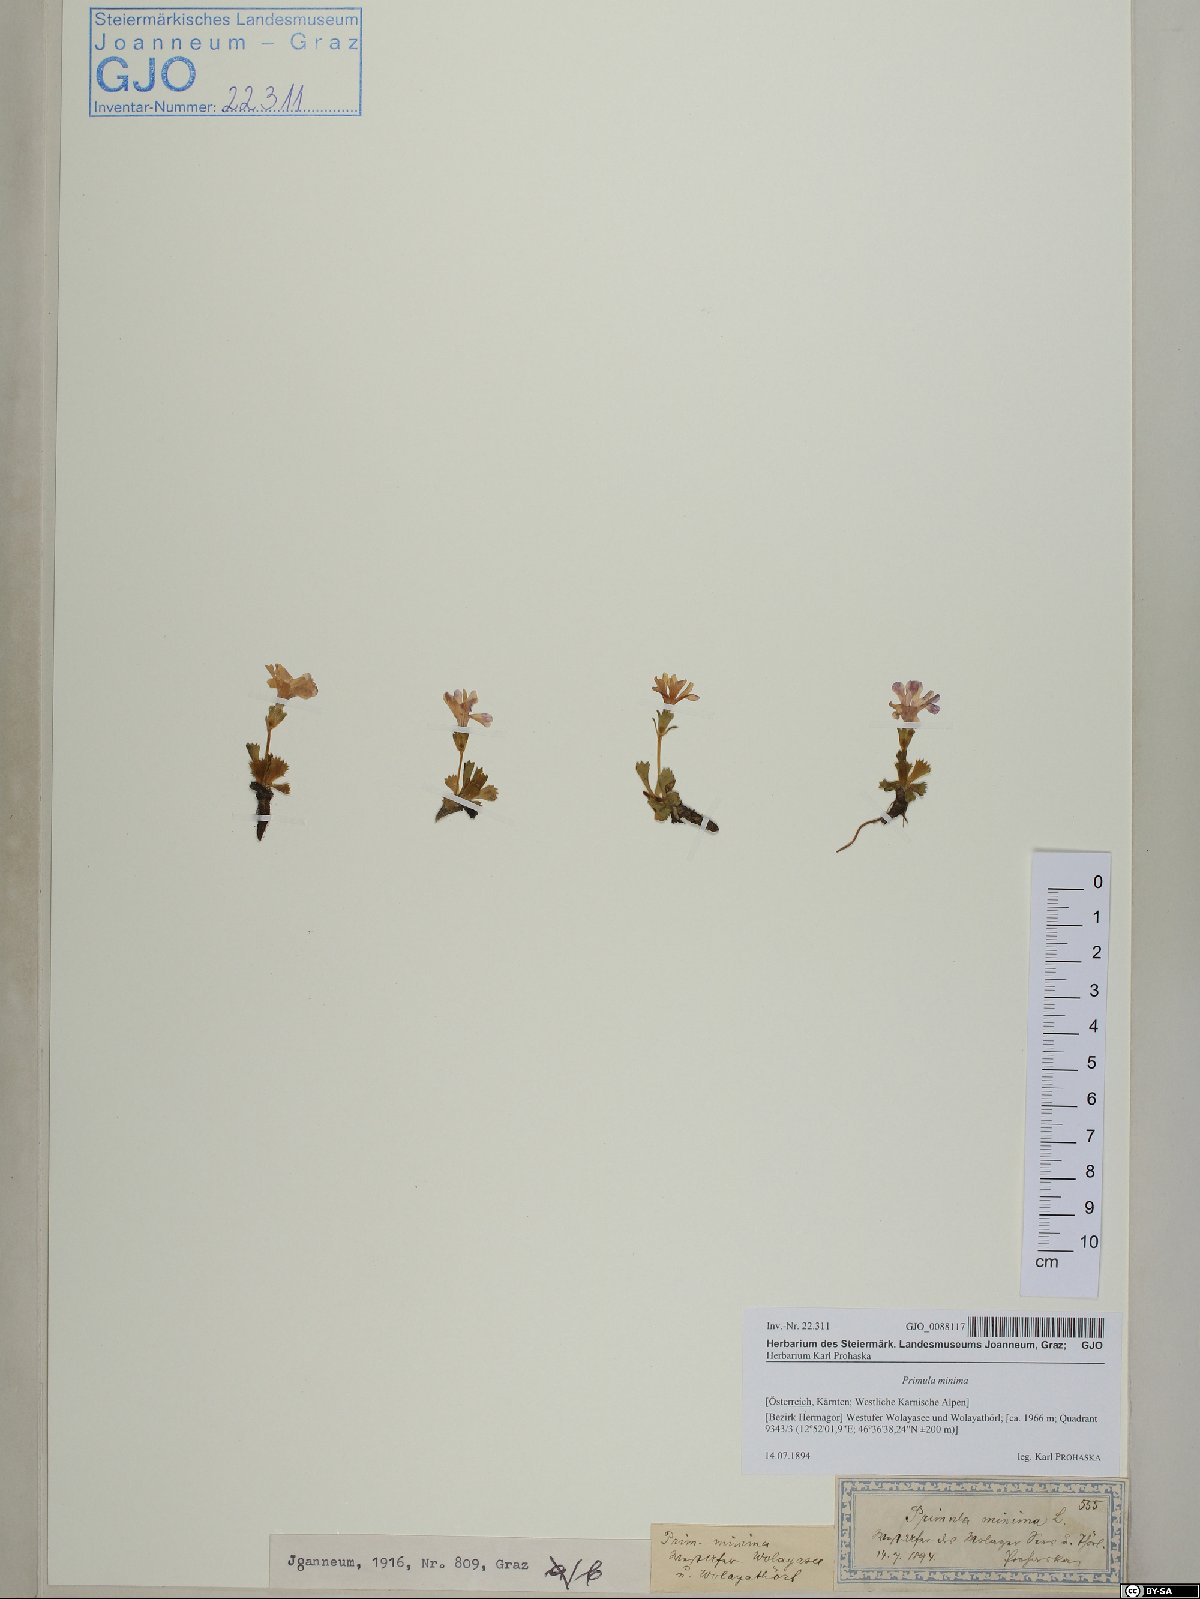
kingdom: Plantae
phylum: Tracheophyta
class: Magnoliopsida
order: Ericales
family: Primulaceae
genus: Primula
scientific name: Primula minima
